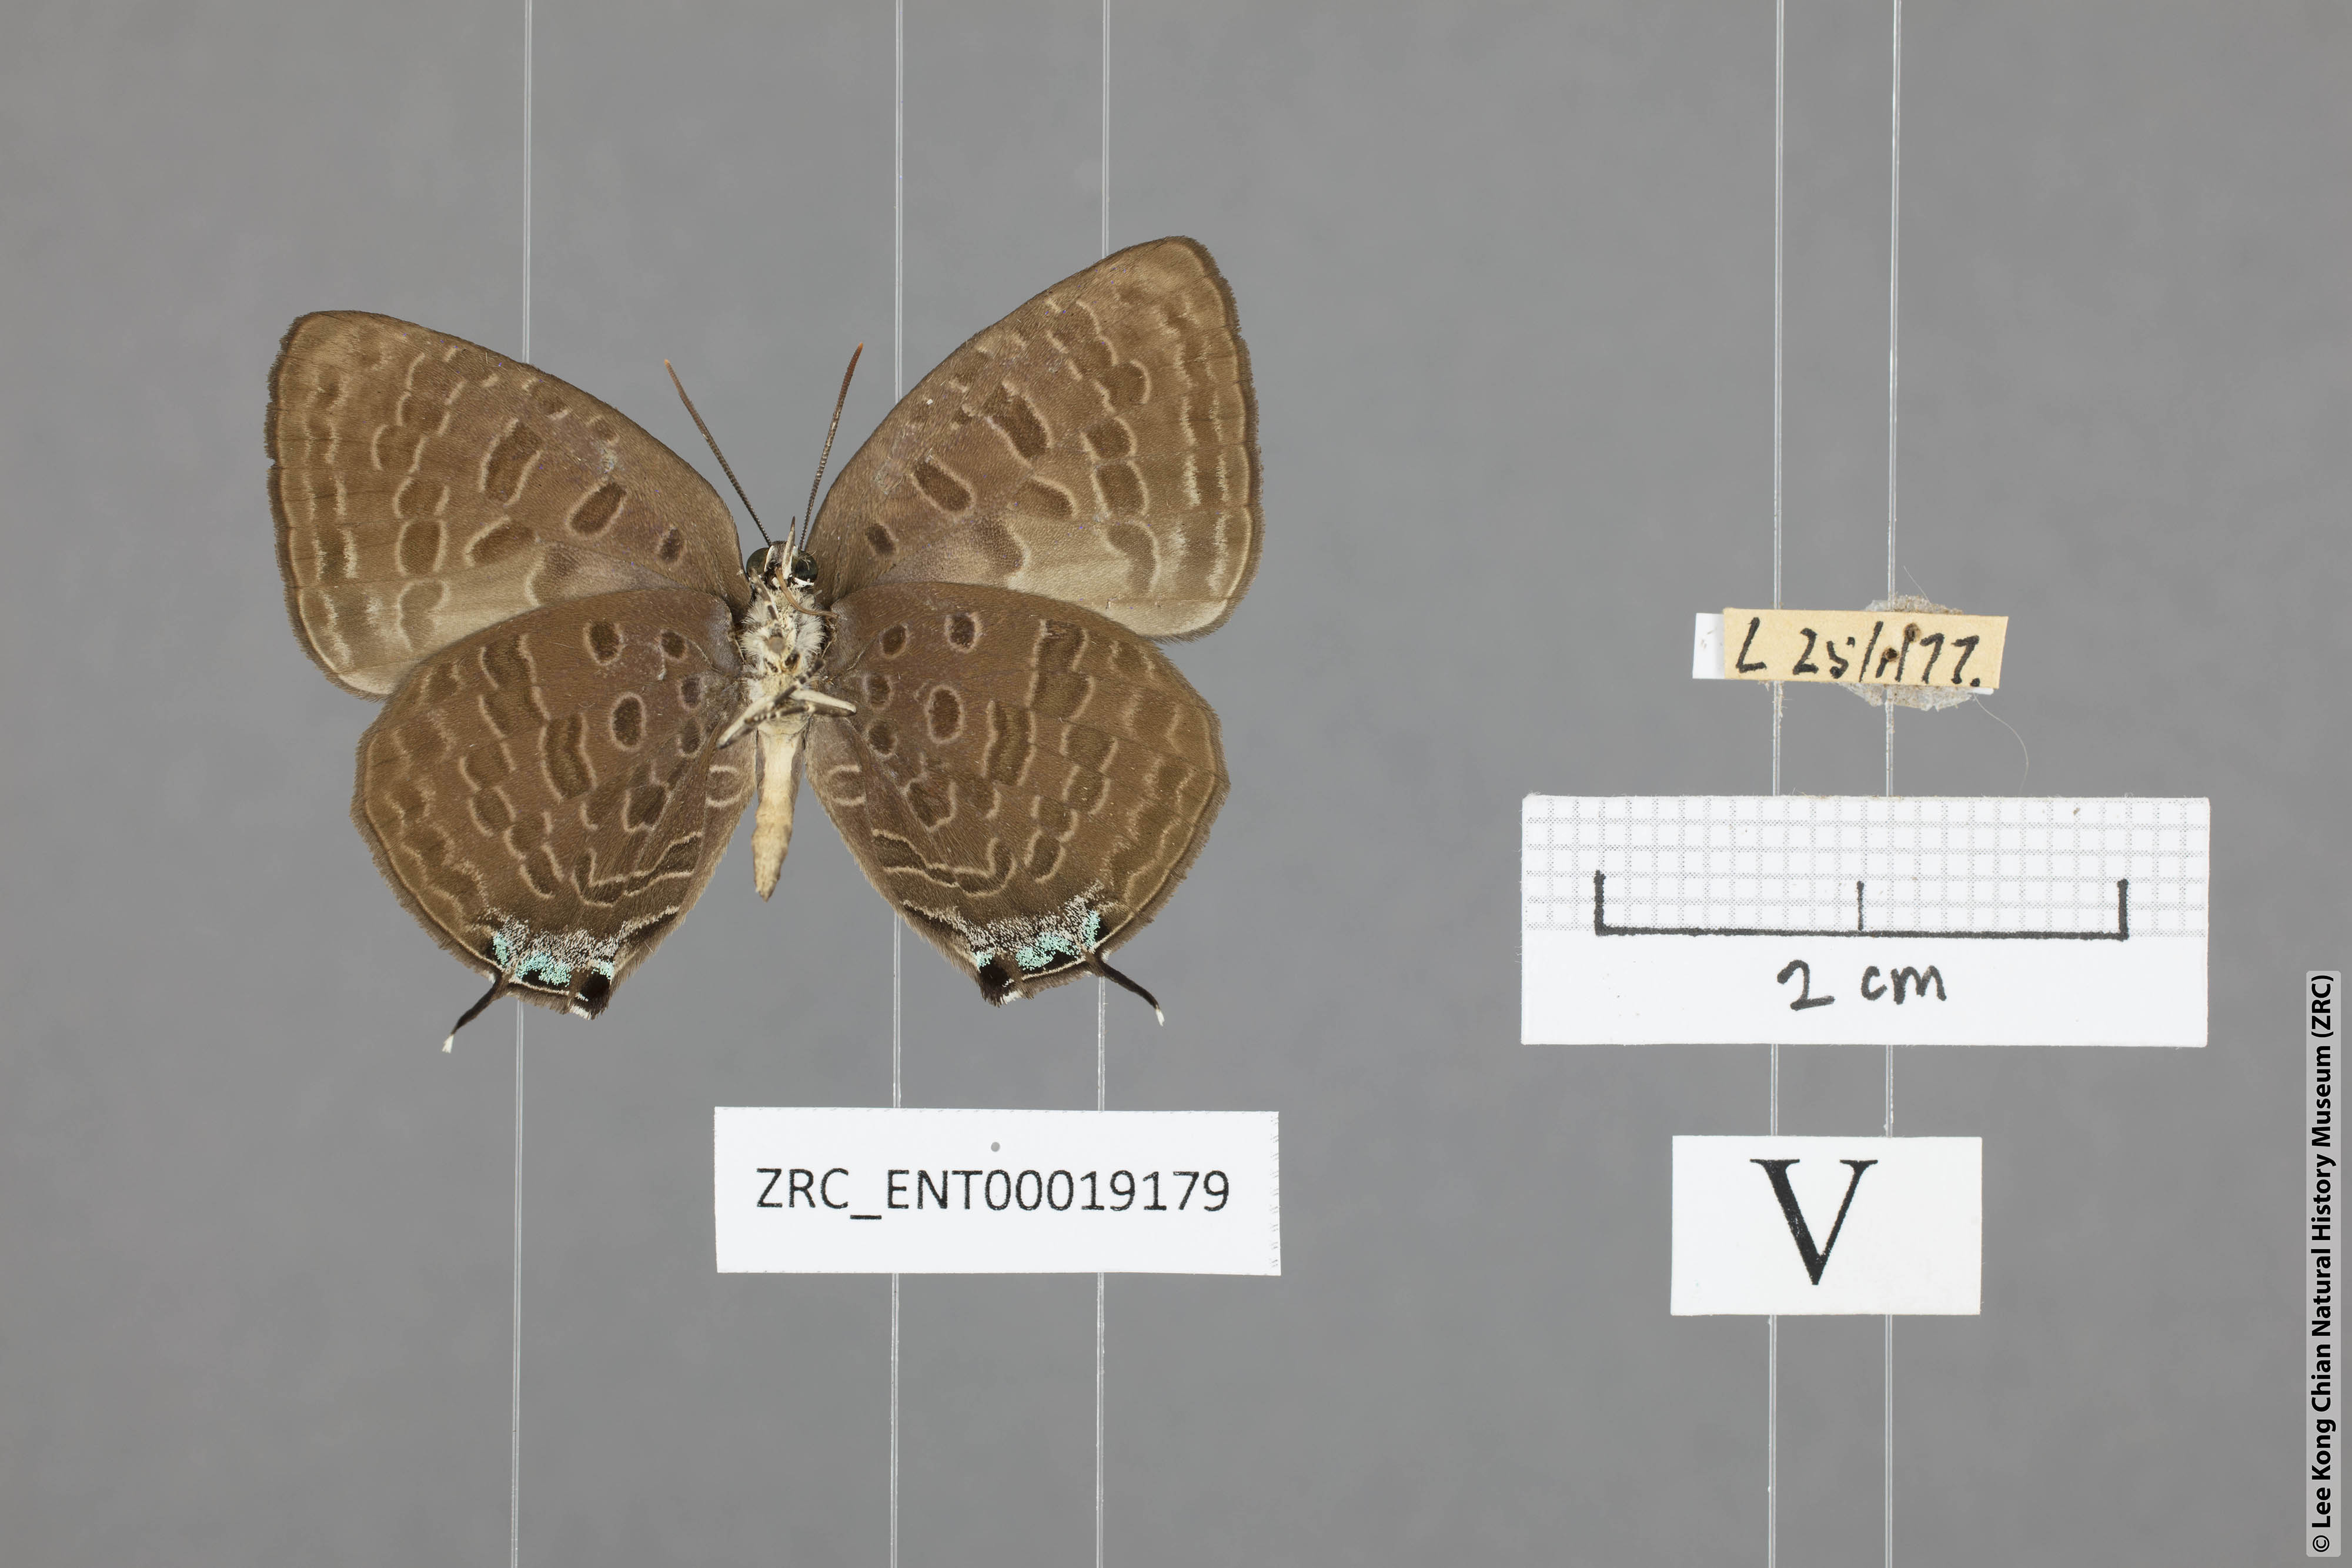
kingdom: Animalia
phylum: Arthropoda
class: Insecta
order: Lepidoptera
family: Lycaenidae
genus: Arhopala
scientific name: Arhopala ariana
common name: Pinkish-washed oakblue
